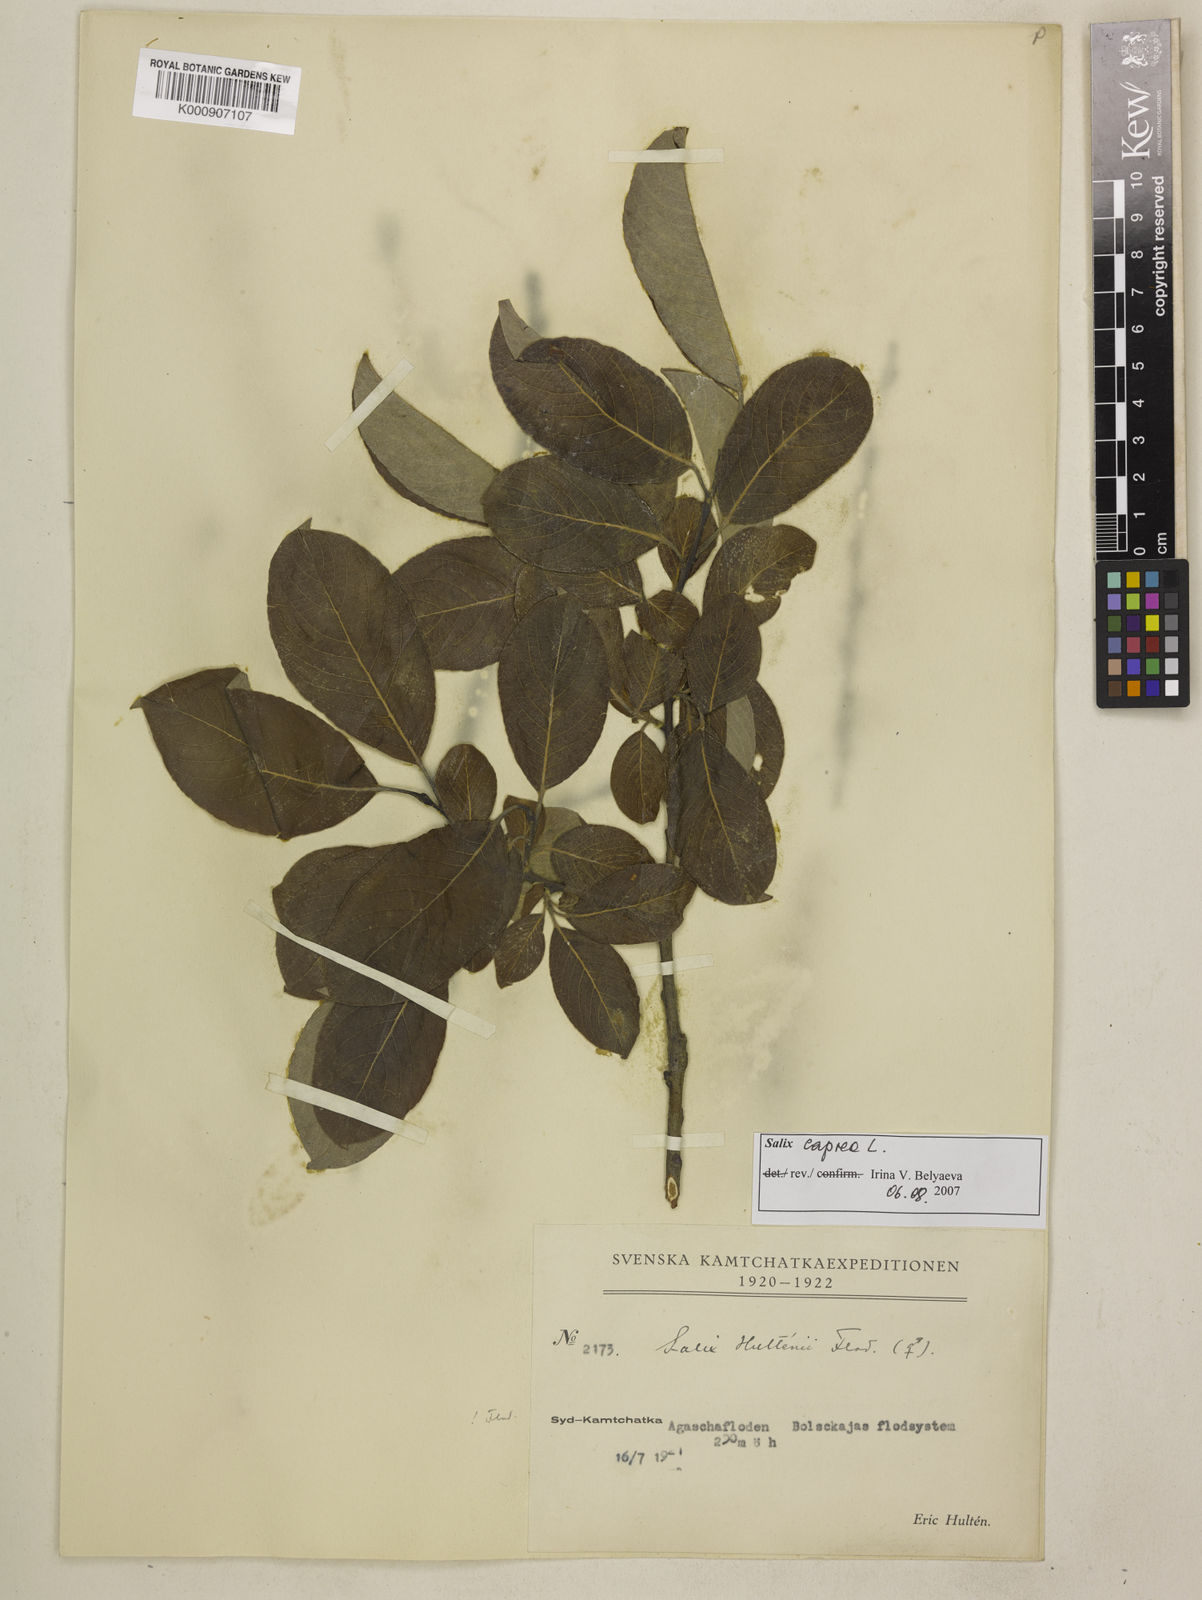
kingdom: Plantae
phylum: Tracheophyta
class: Magnoliopsida
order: Malpighiales
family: Salicaceae
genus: Salix
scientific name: Salix caprea
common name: Goat willow
